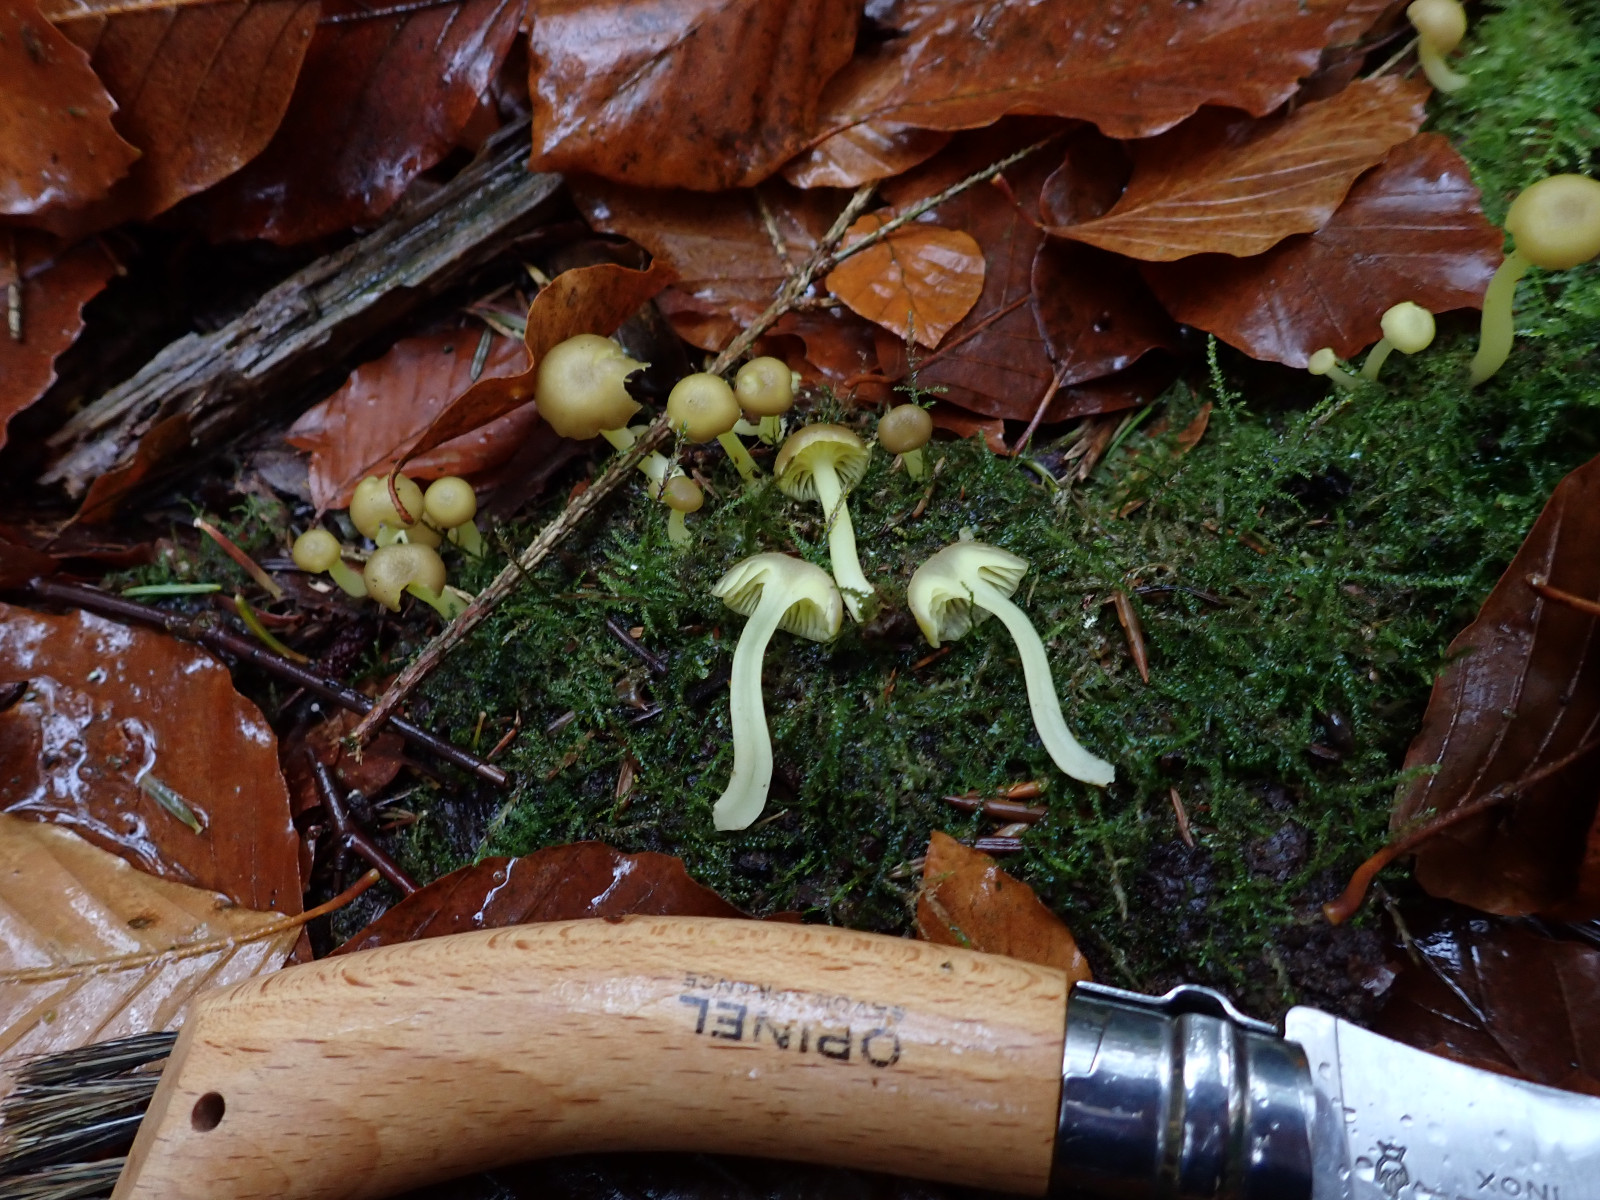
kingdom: Fungi
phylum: Basidiomycota
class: Agaricomycetes
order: Agaricales
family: Hygrophoraceae
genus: Chrysomphalina
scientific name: Chrysomphalina grossula
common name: stød-gyldenblad
